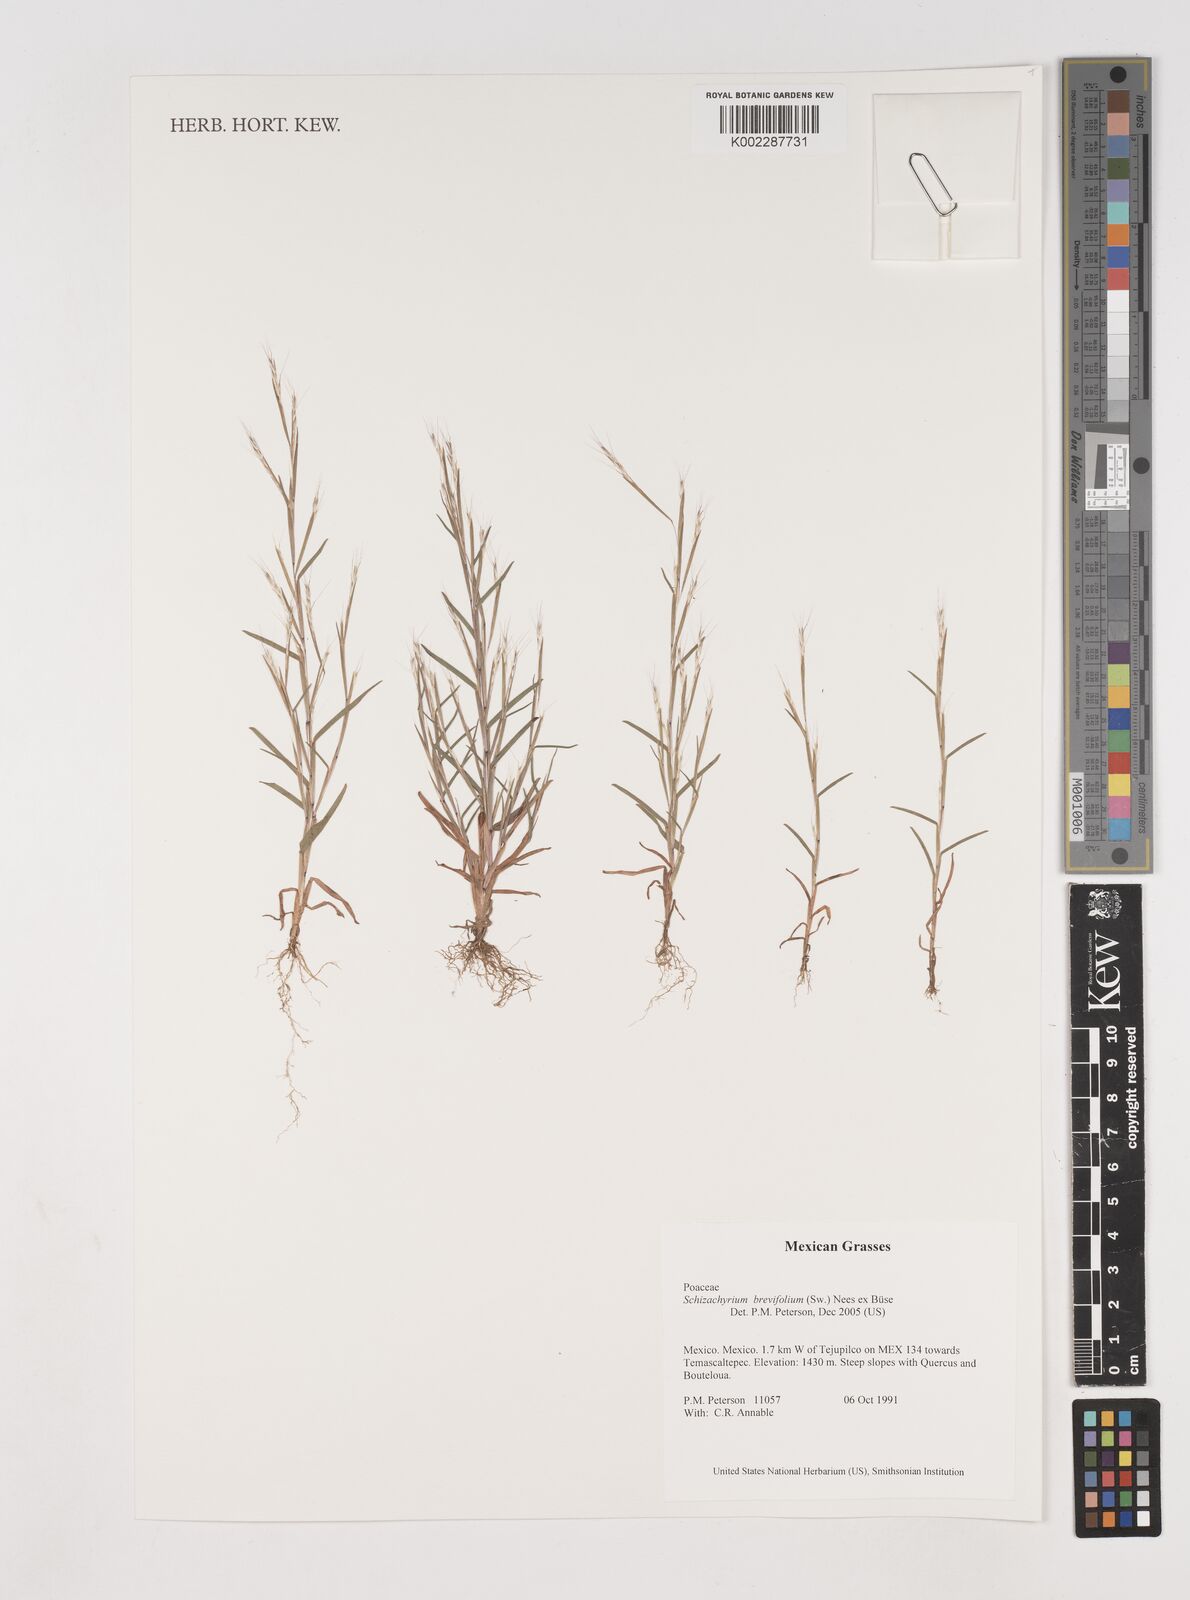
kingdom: Plantae
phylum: Tracheophyta
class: Liliopsida
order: Poales
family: Poaceae
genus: Schizachyrium
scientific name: Schizachyrium brevifolium
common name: Serillo dulce
